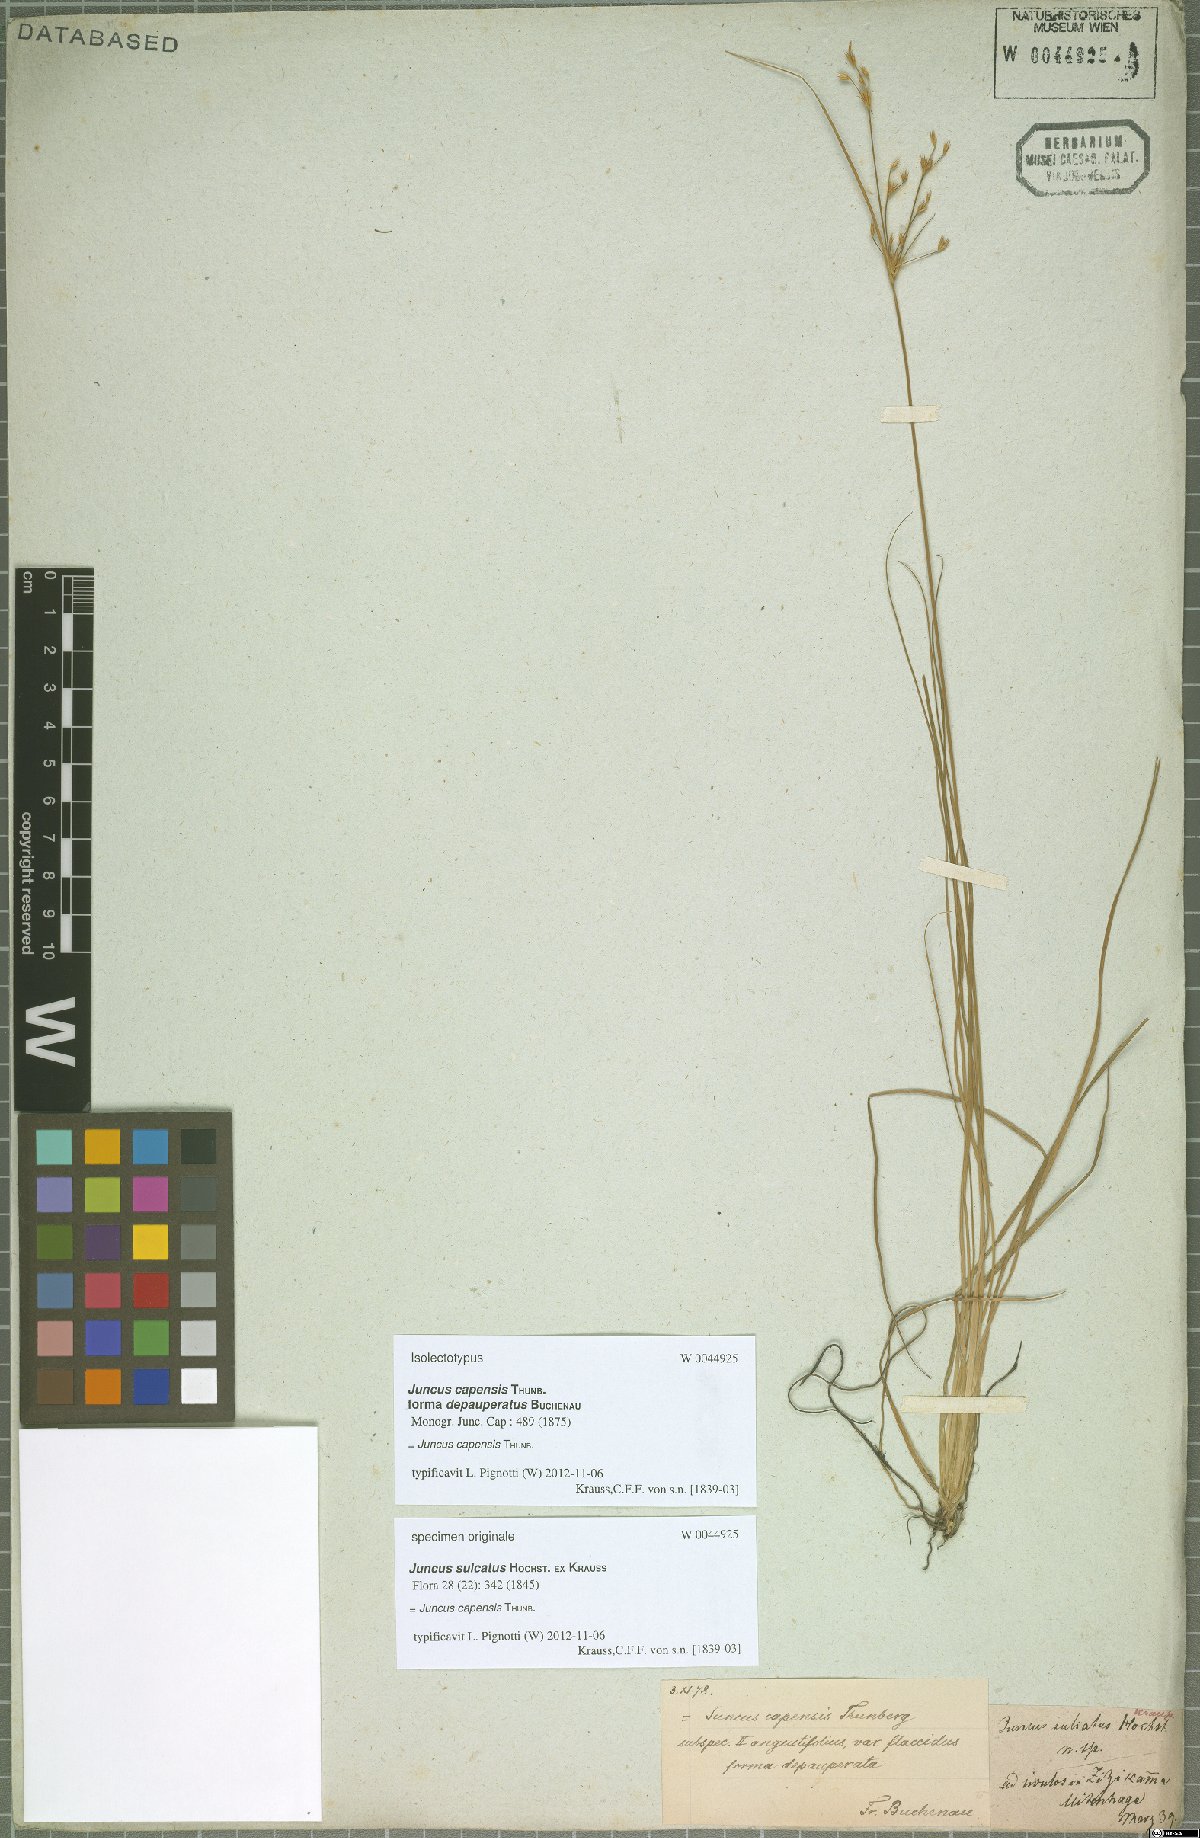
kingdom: Plantae
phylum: Tracheophyta
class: Liliopsida
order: Poales
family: Juncaceae
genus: Juncus
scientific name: Juncus capensis
